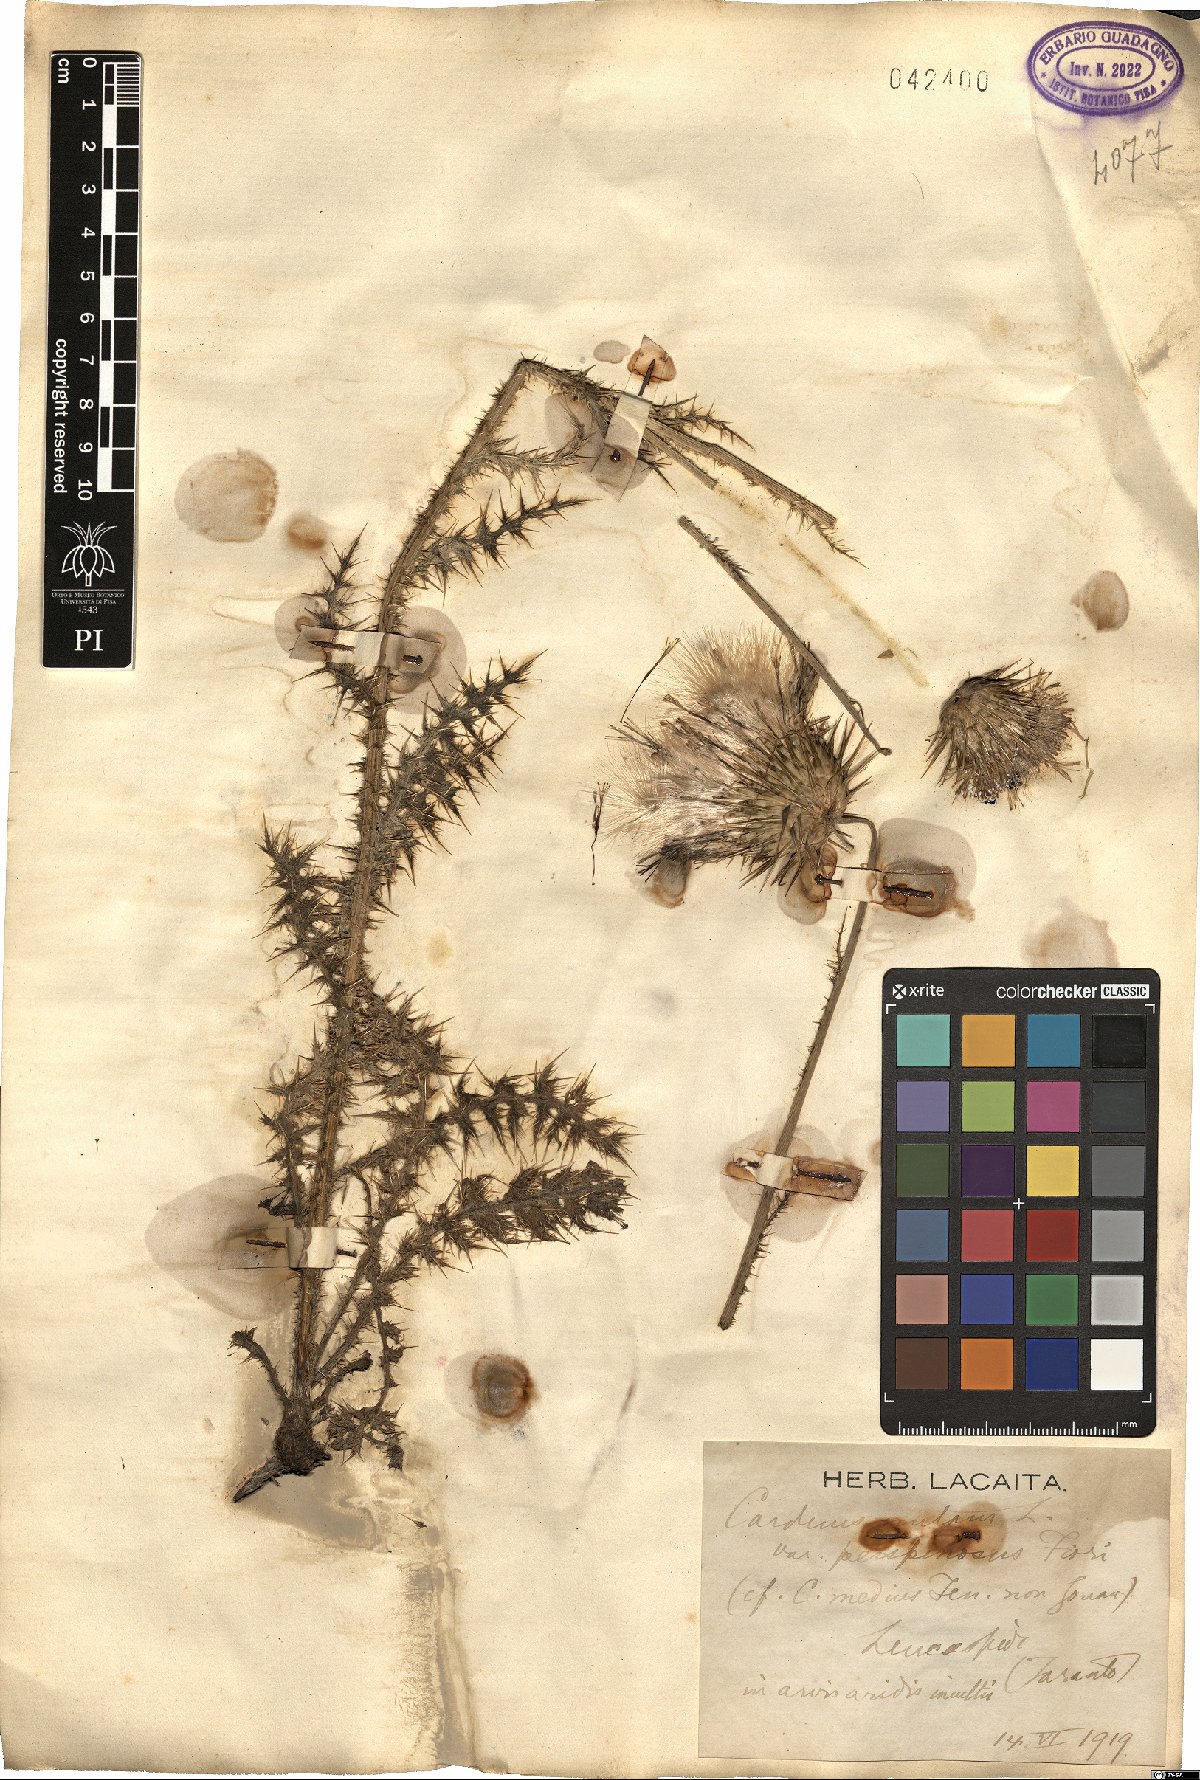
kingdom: Plantae
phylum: Tracheophyta
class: Magnoliopsida
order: Asterales
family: Asteraceae
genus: Carduus
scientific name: Carduus
